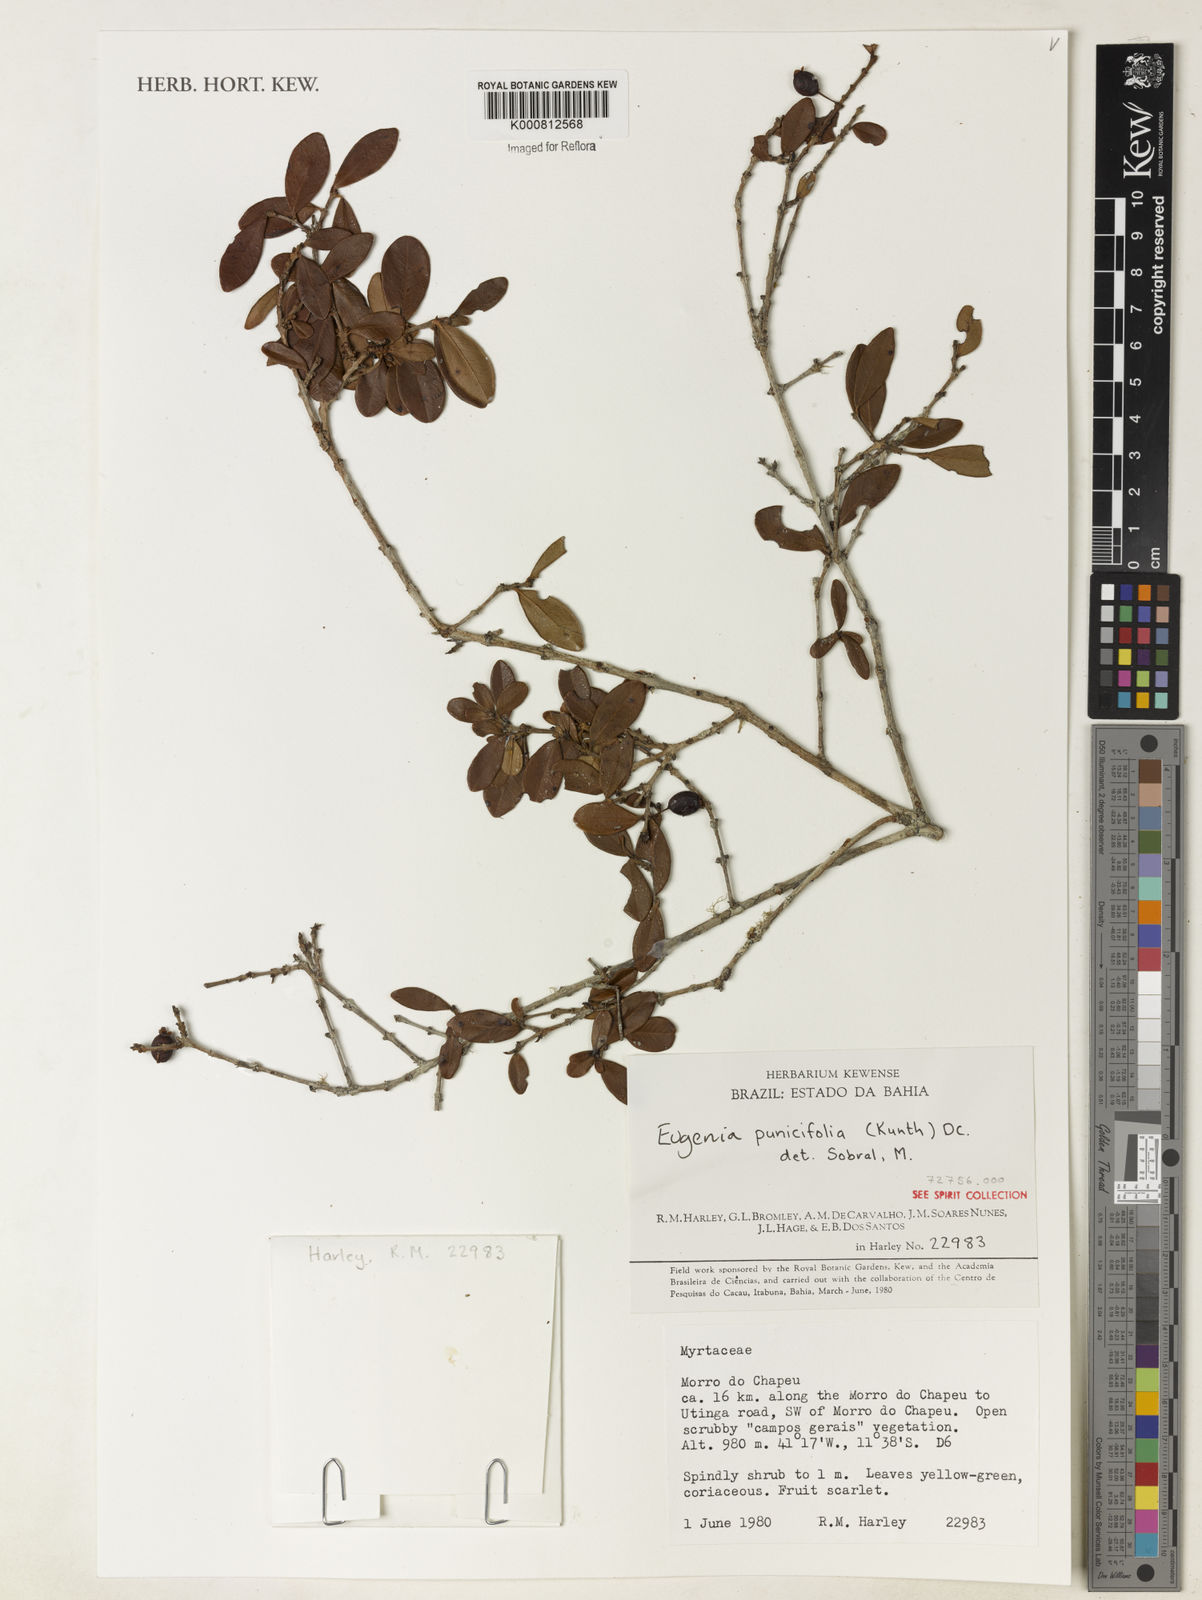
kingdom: Plantae
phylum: Tracheophyta
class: Magnoliopsida
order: Myrtales
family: Myrtaceae
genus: Eugenia
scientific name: Eugenia punicifolia
